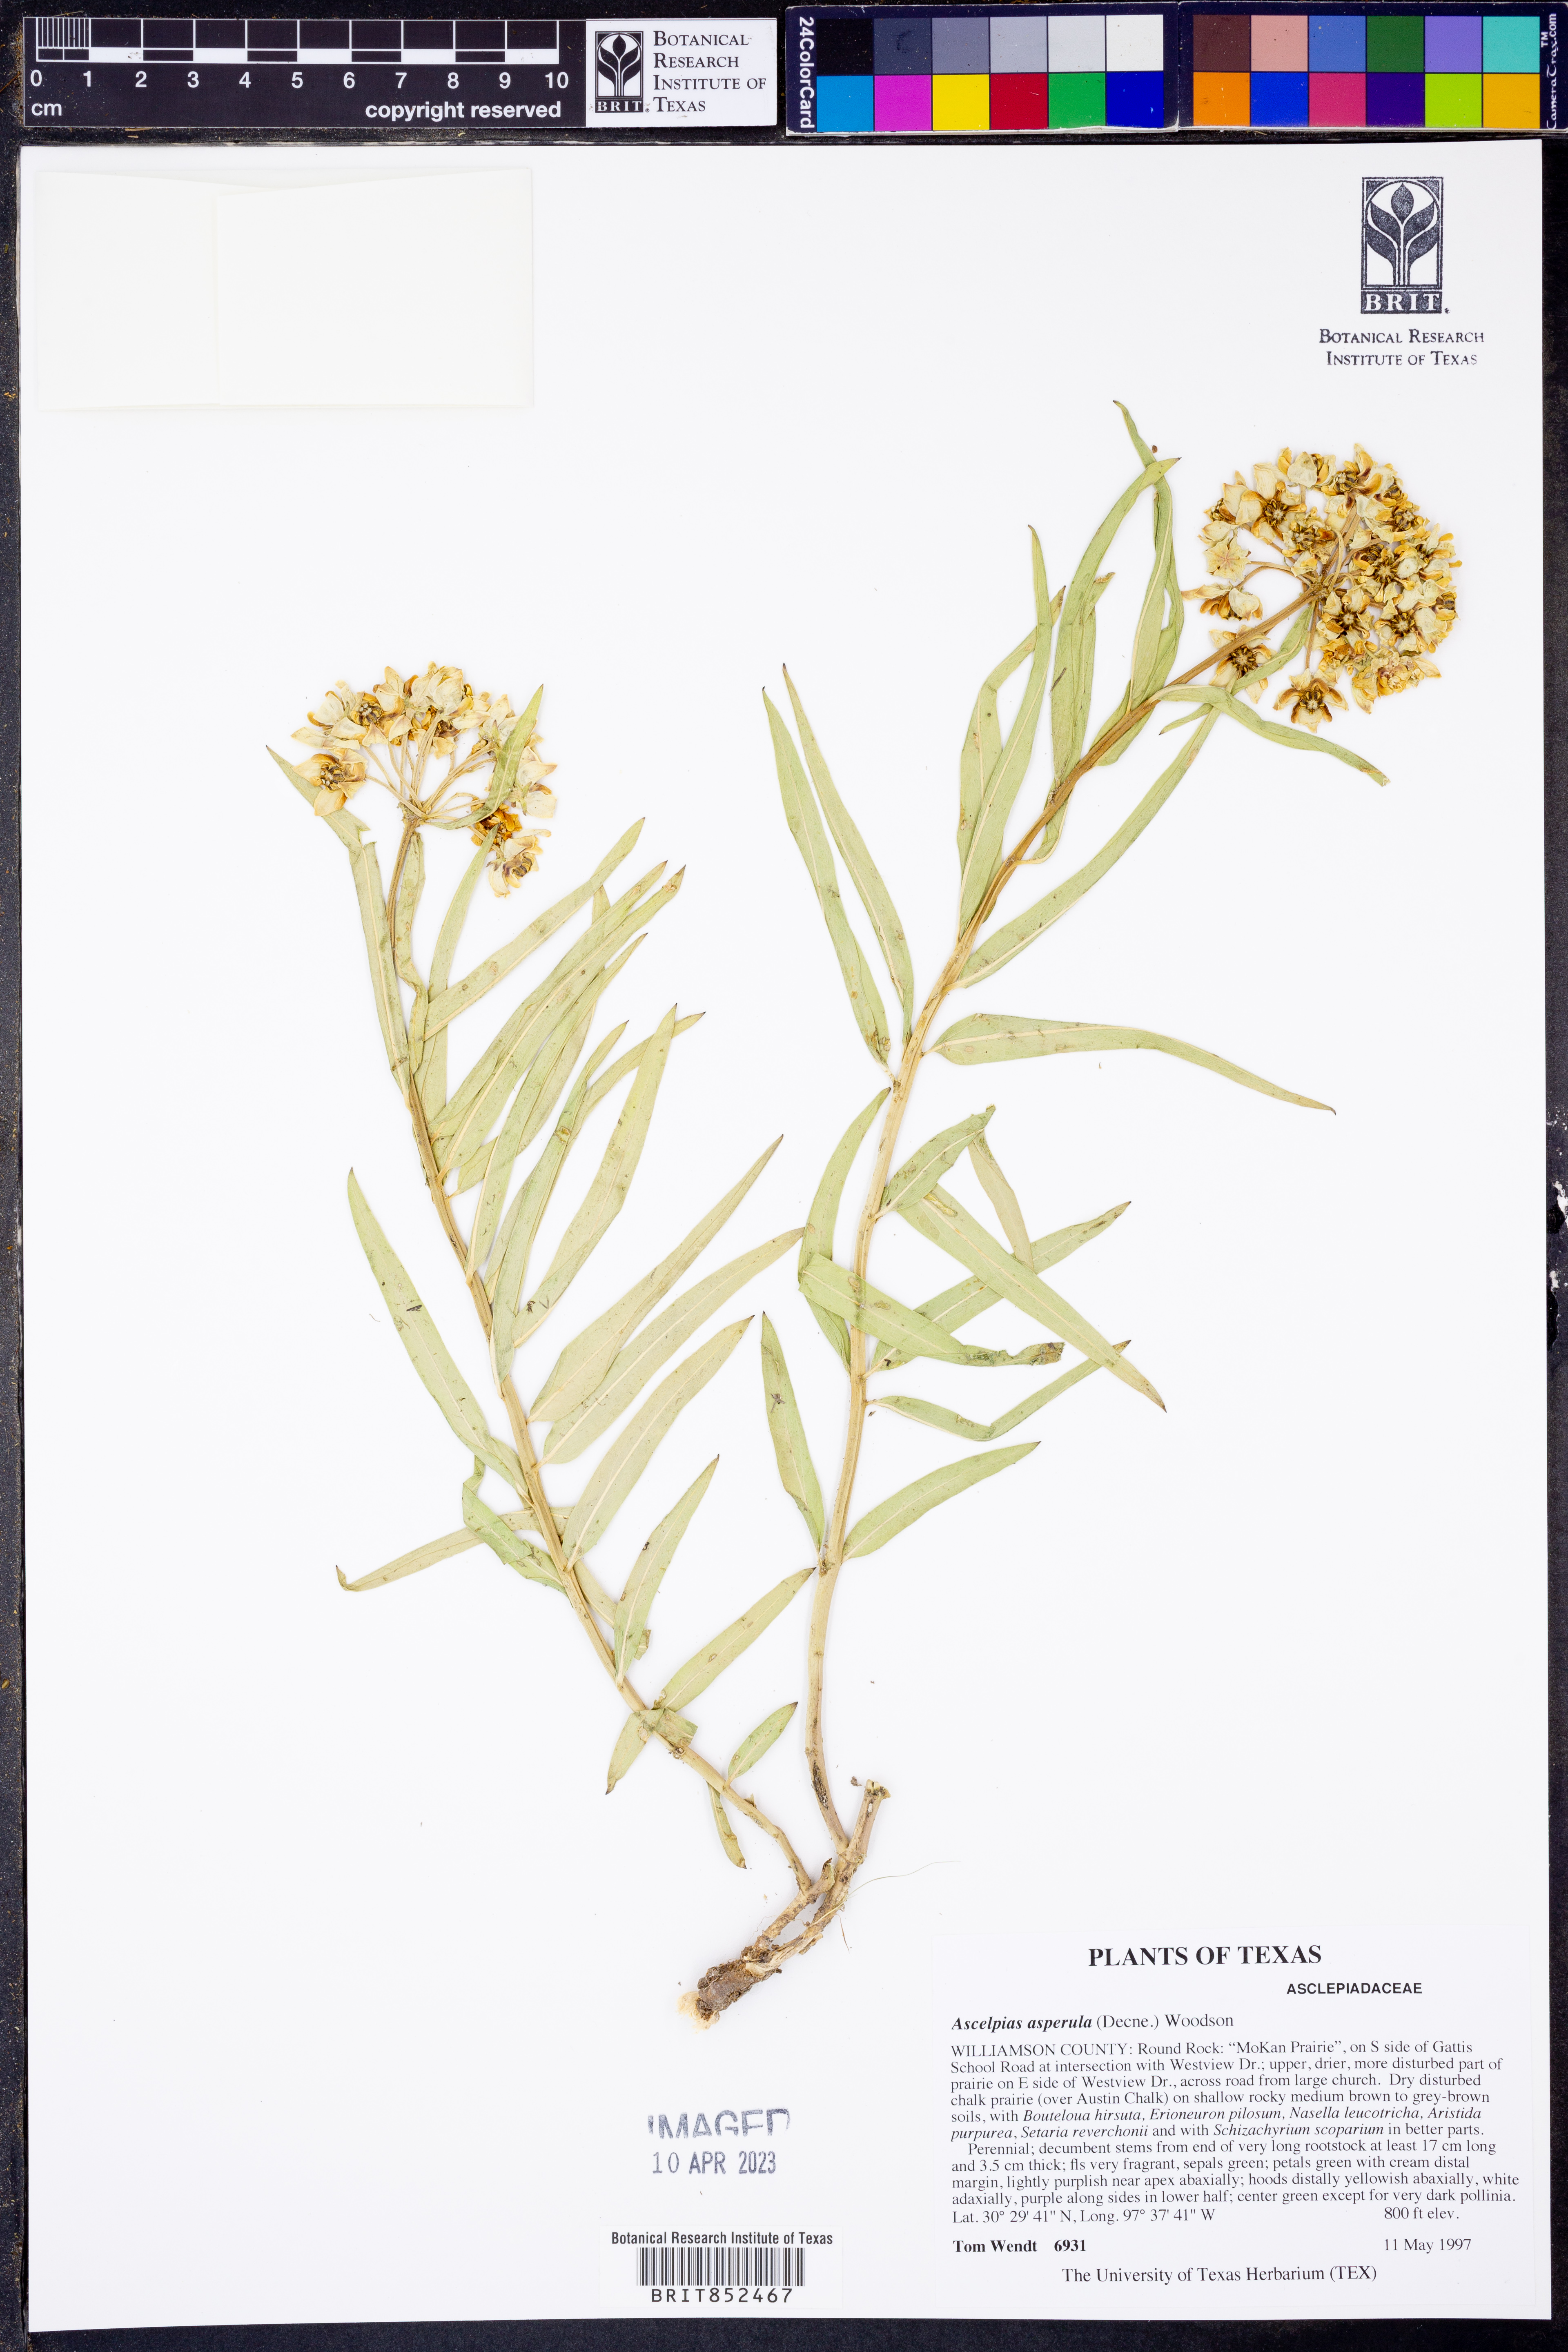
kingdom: Plantae
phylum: Tracheophyta
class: Magnoliopsida
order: Gentianales
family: Apocynaceae
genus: Asclepias
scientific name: Asclepias asperula
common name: Antelope horns
